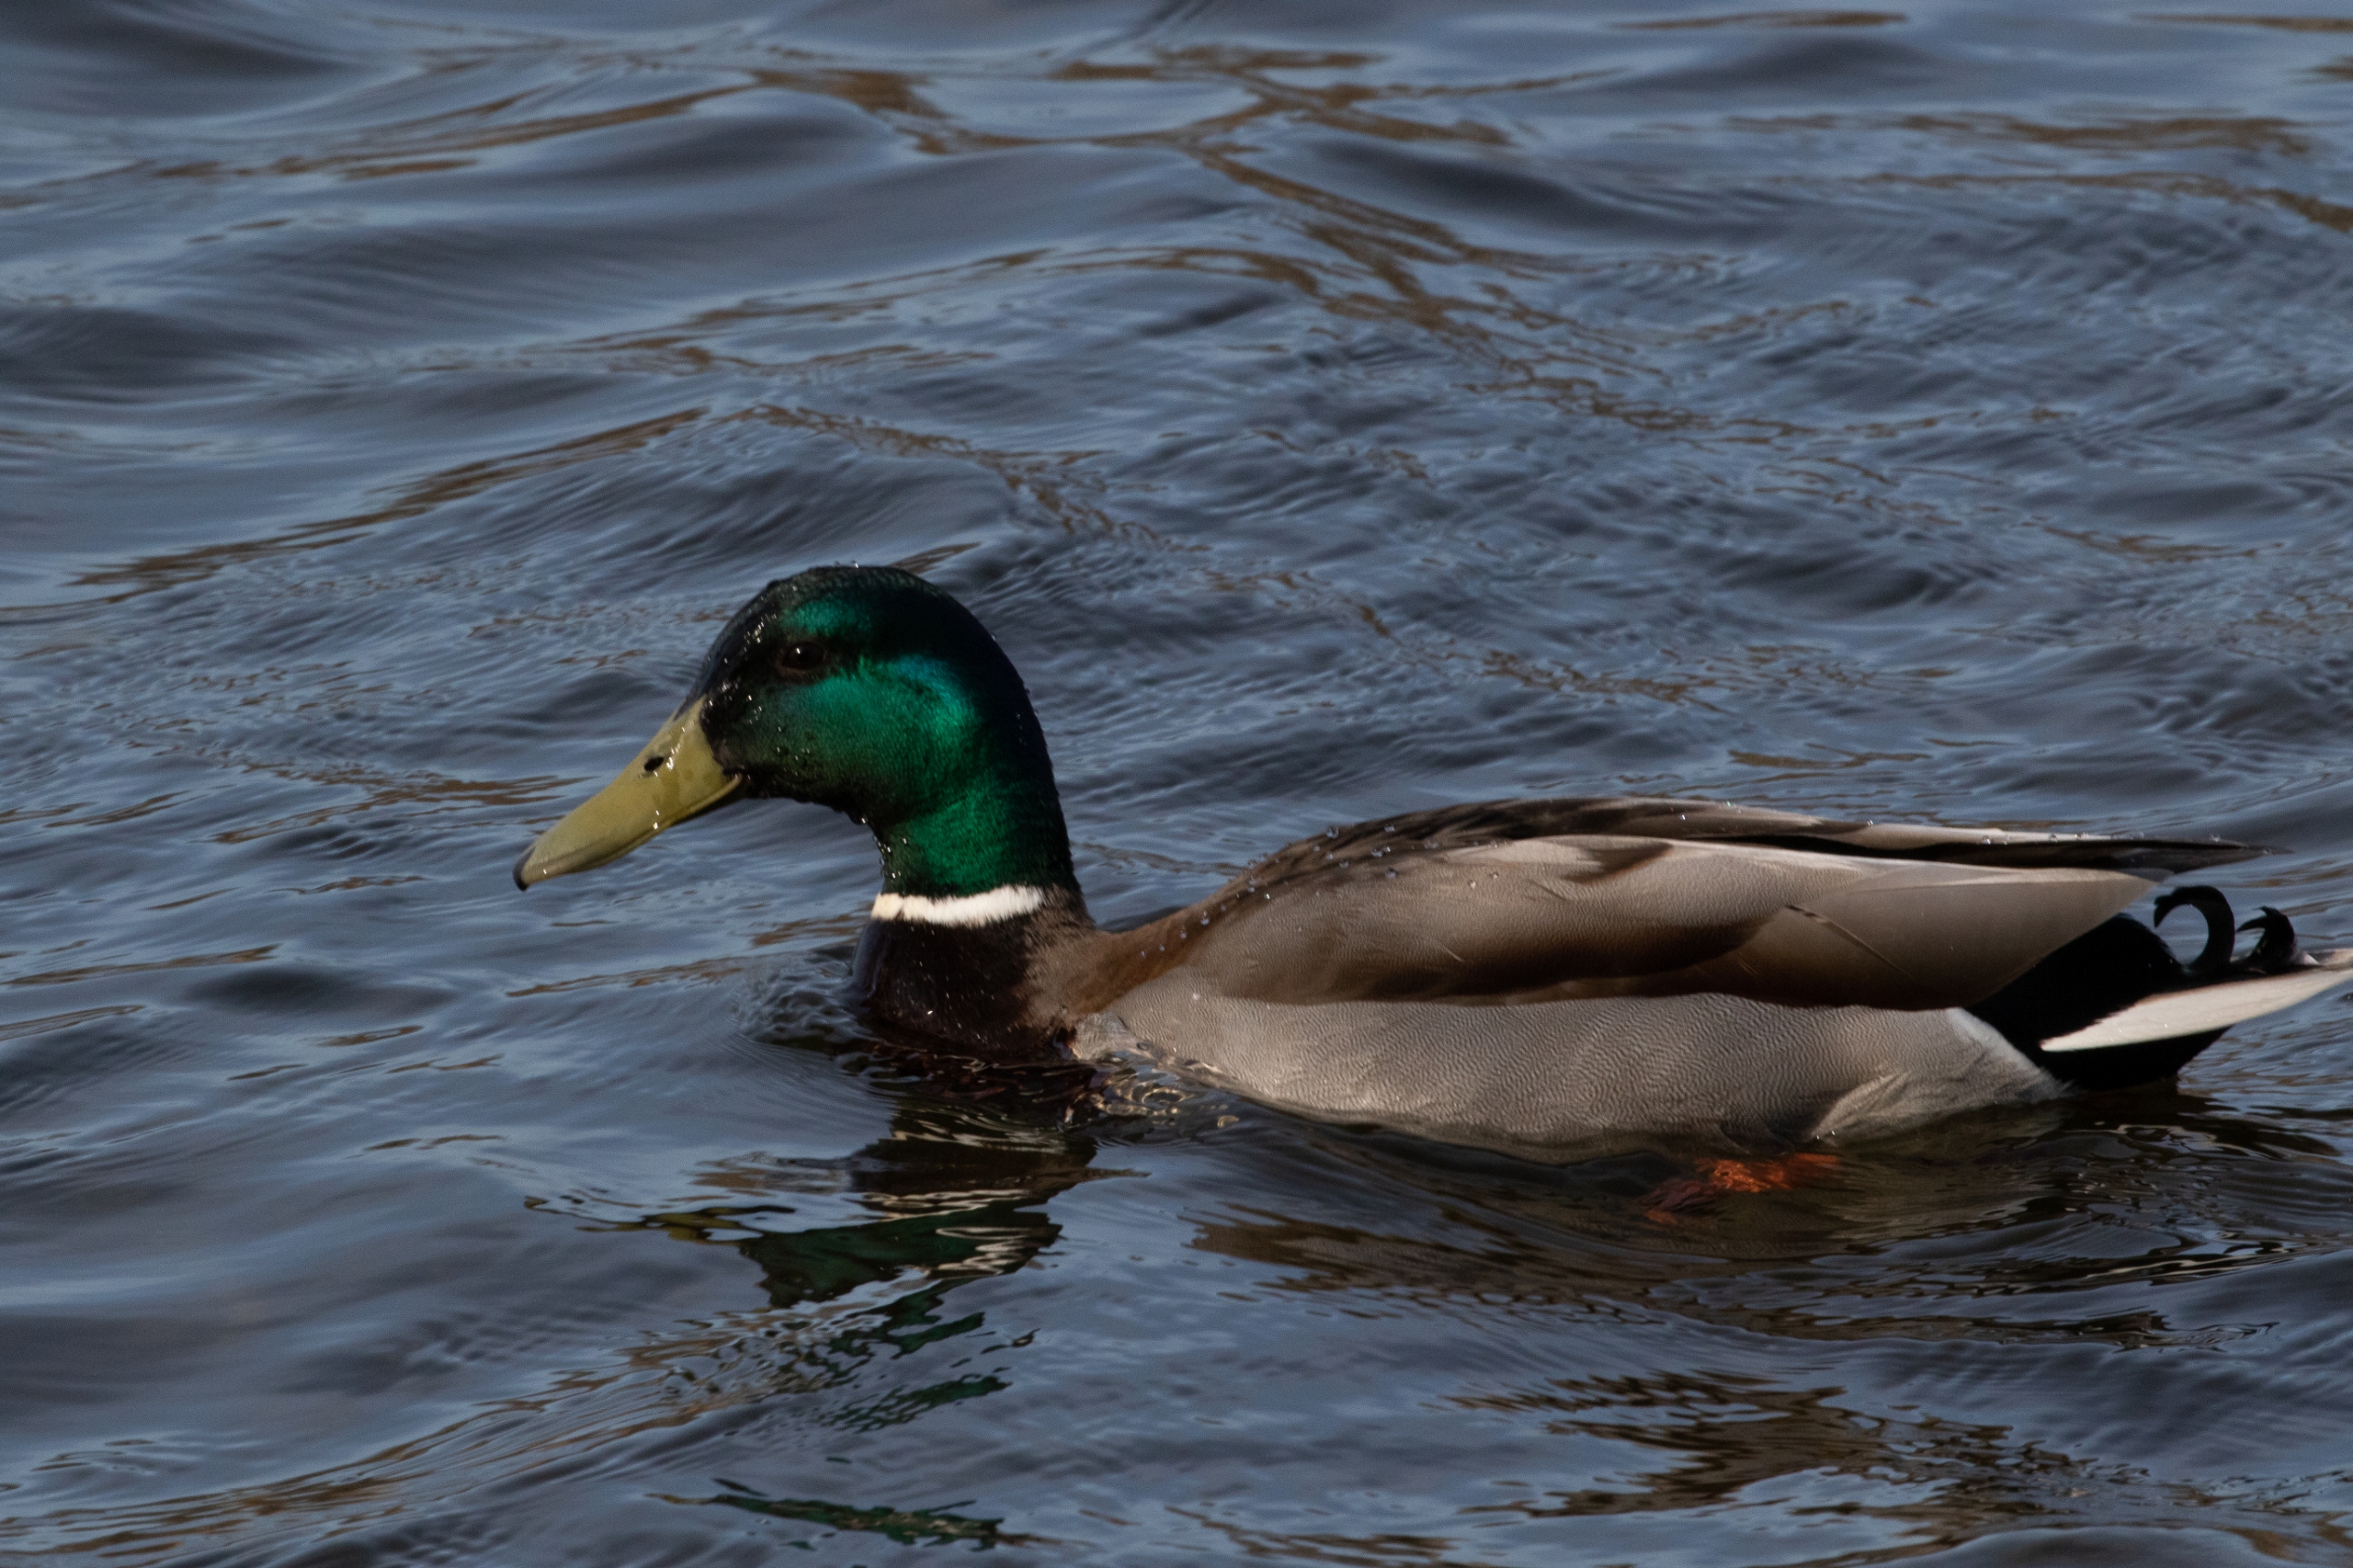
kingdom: Animalia
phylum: Chordata
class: Aves
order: Anseriformes
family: Anatidae
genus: Anas
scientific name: Anas platyrhynchos
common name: Gråand
